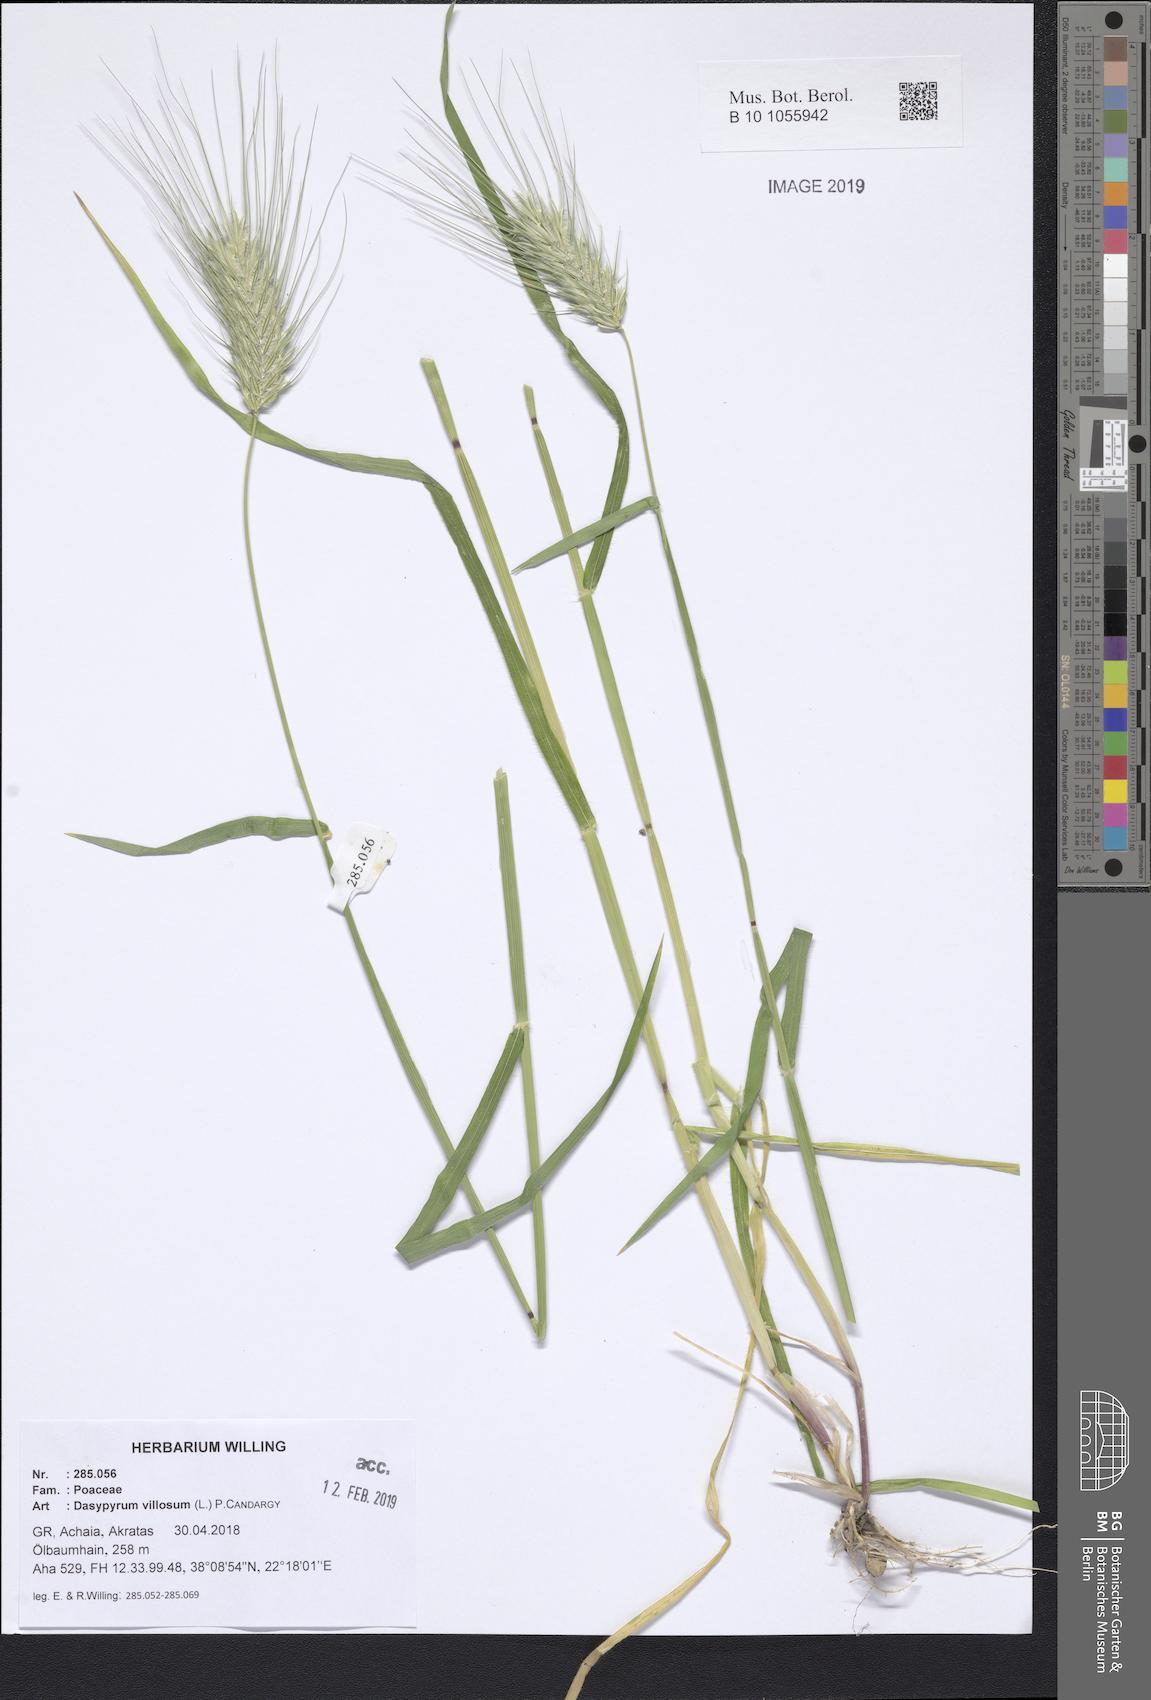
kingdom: Plantae
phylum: Tracheophyta
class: Liliopsida
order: Poales
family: Poaceae
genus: Dasypyrum
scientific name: Dasypyrum villosum
